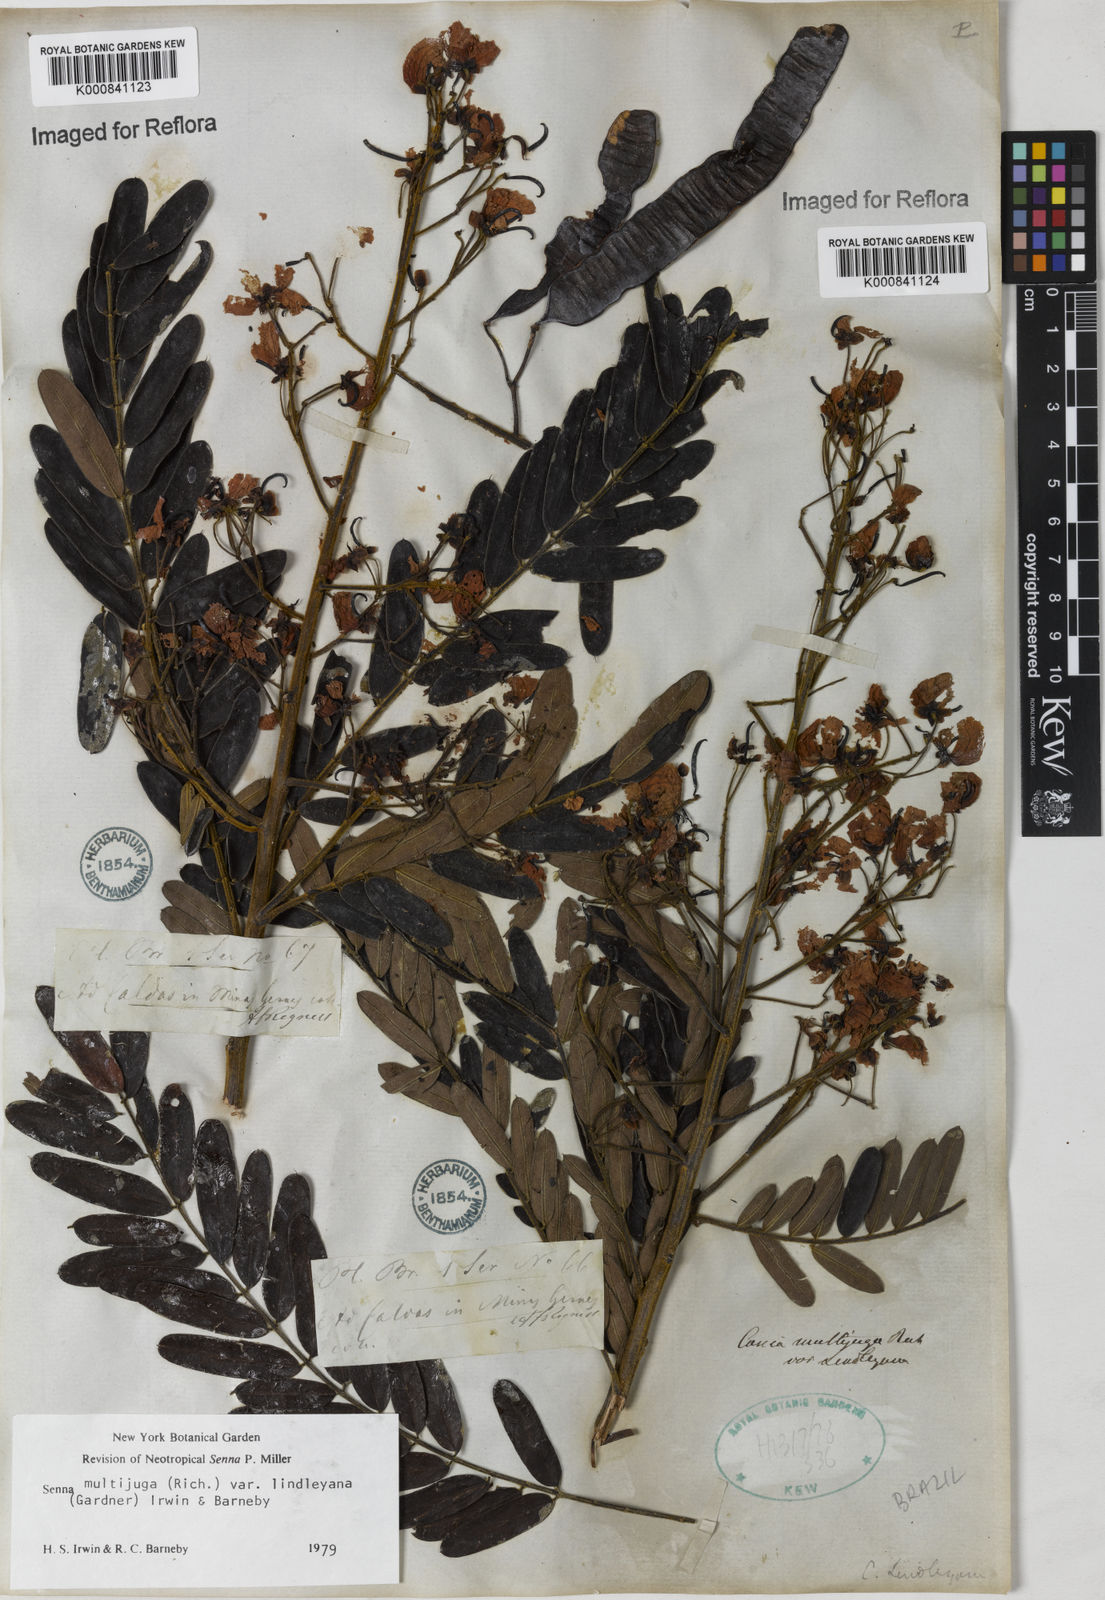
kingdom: Plantae
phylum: Tracheophyta
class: Magnoliopsida
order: Fabales
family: Fabaceae
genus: Senna
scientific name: Senna multijuga
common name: False sicklepod
